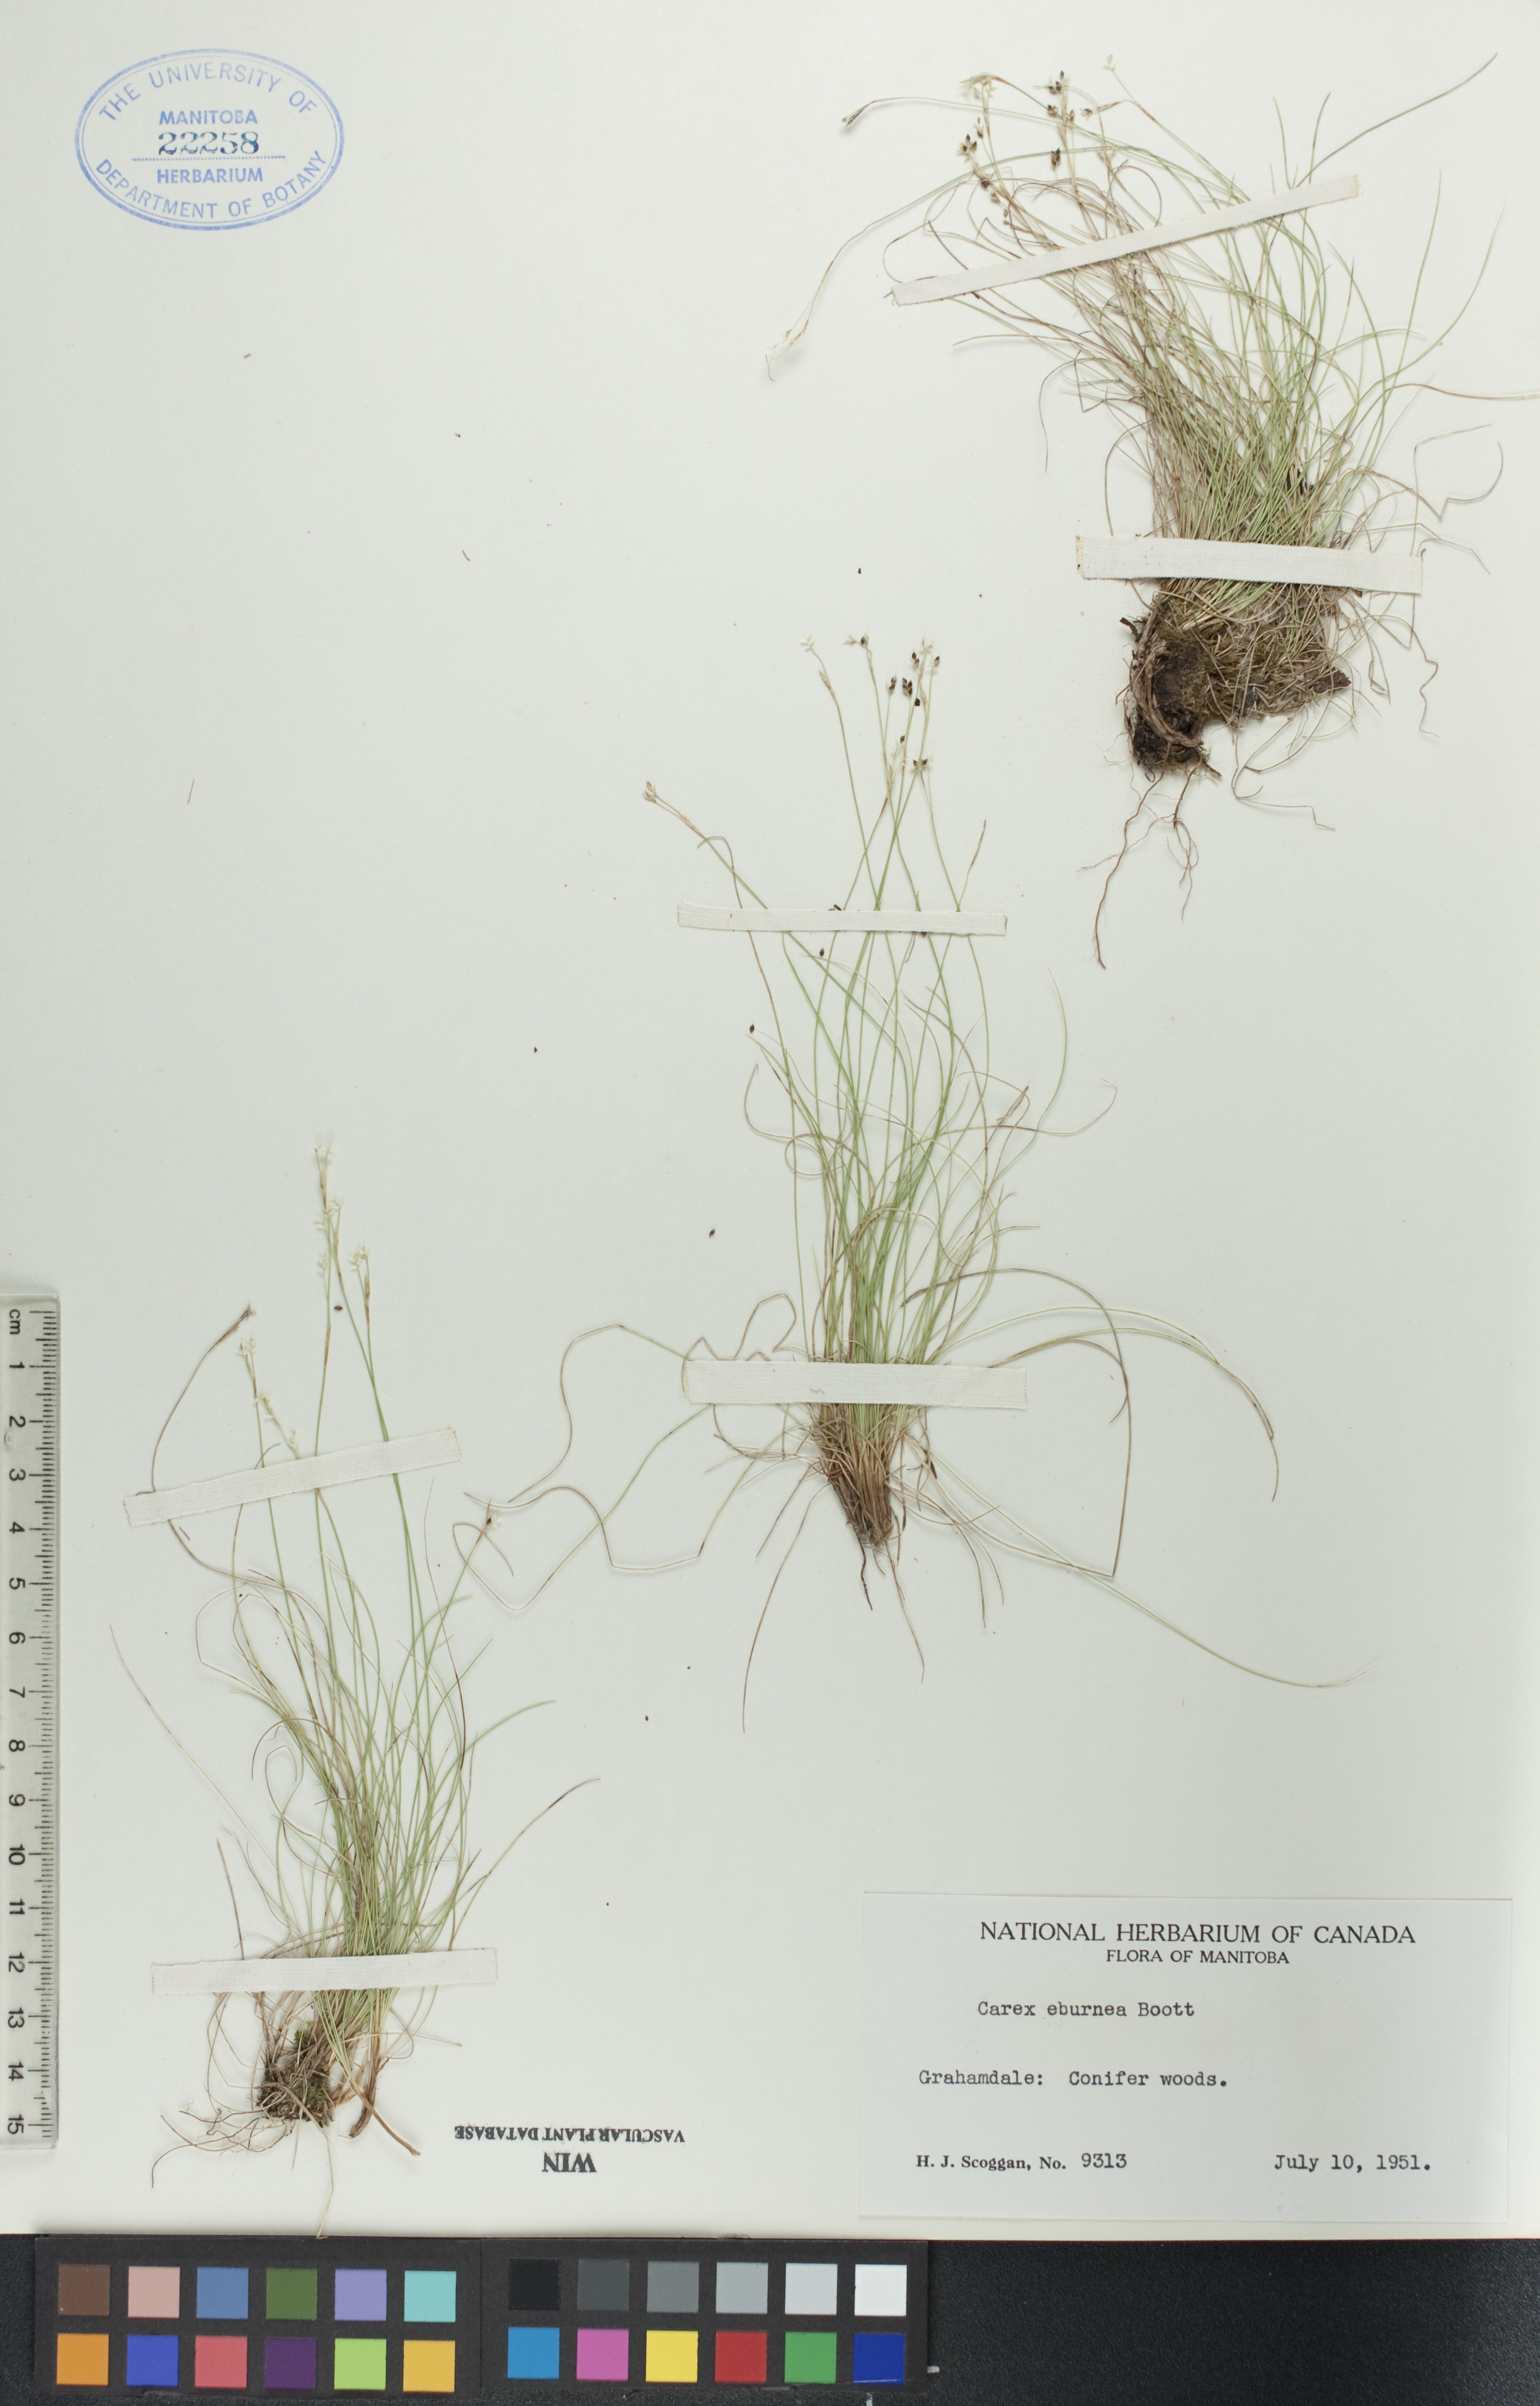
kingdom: Plantae
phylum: Tracheophyta
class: Liliopsida
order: Poales
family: Cyperaceae
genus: Carex
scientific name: Carex eburnea
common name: Bristle-leaved sedge
